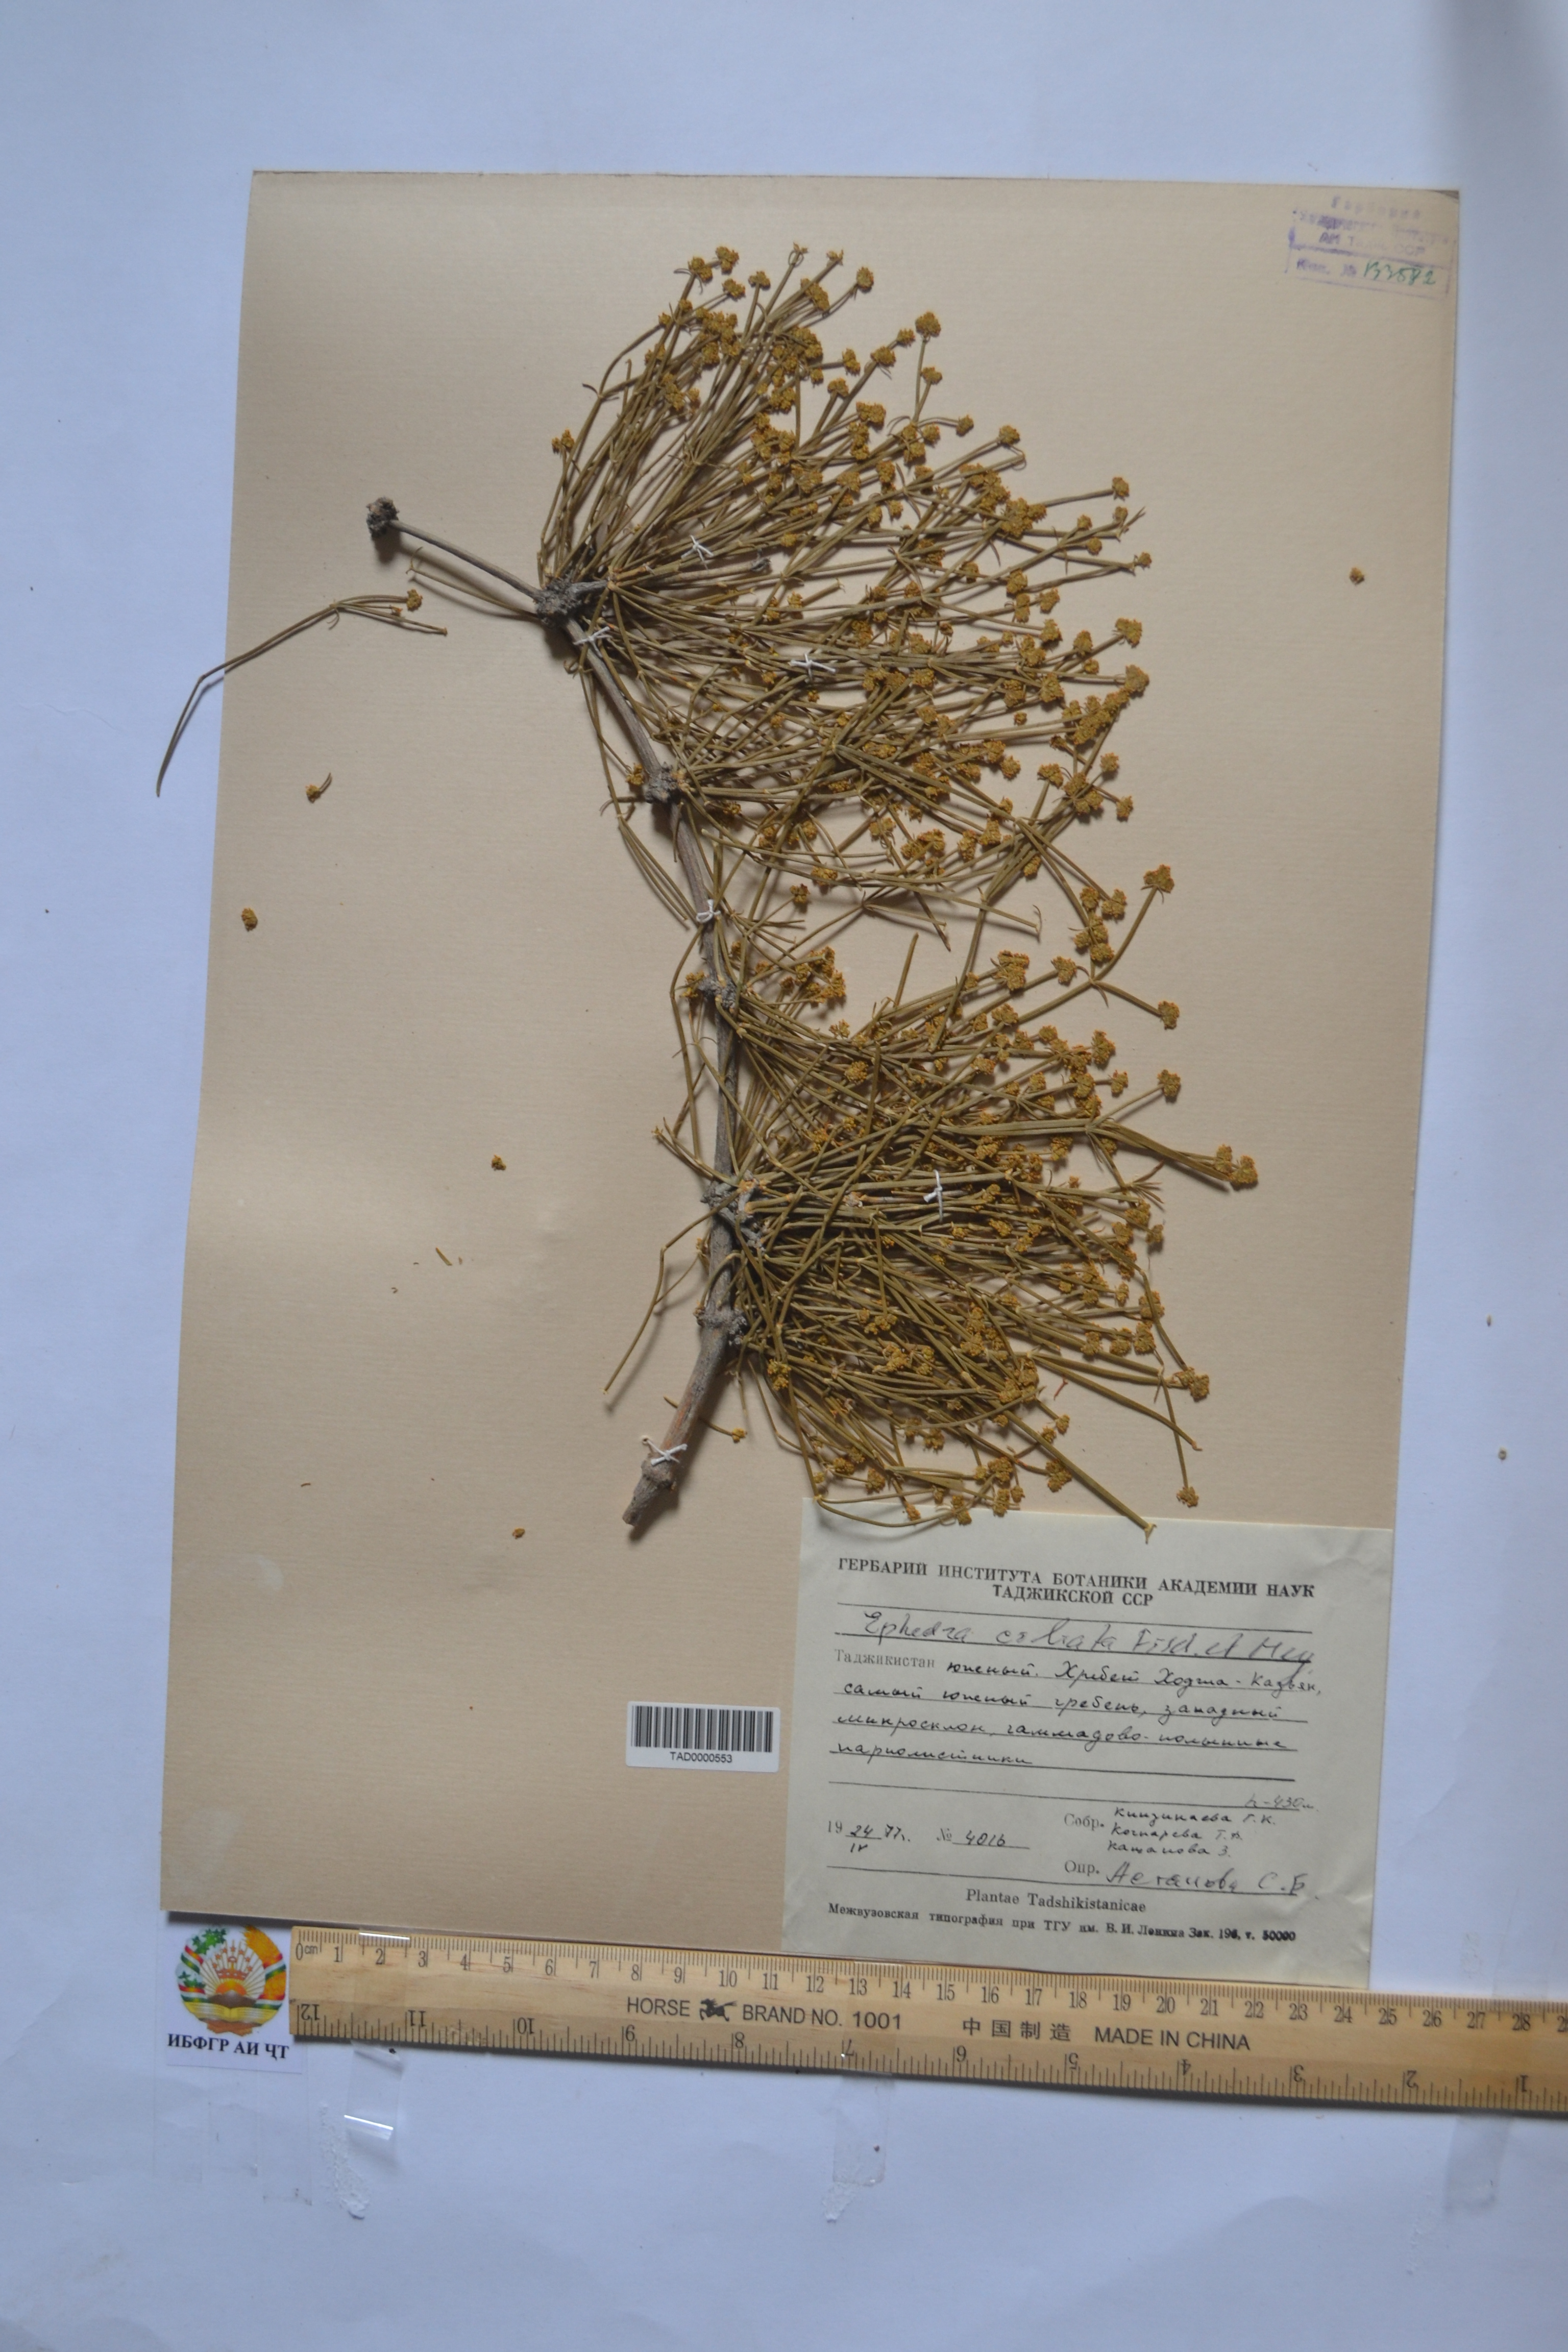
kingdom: Plantae
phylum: Tracheophyta
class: Gnetopsida
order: Ephedrales
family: Ephedraceae
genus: Ephedra
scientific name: Ephedra ciliata
